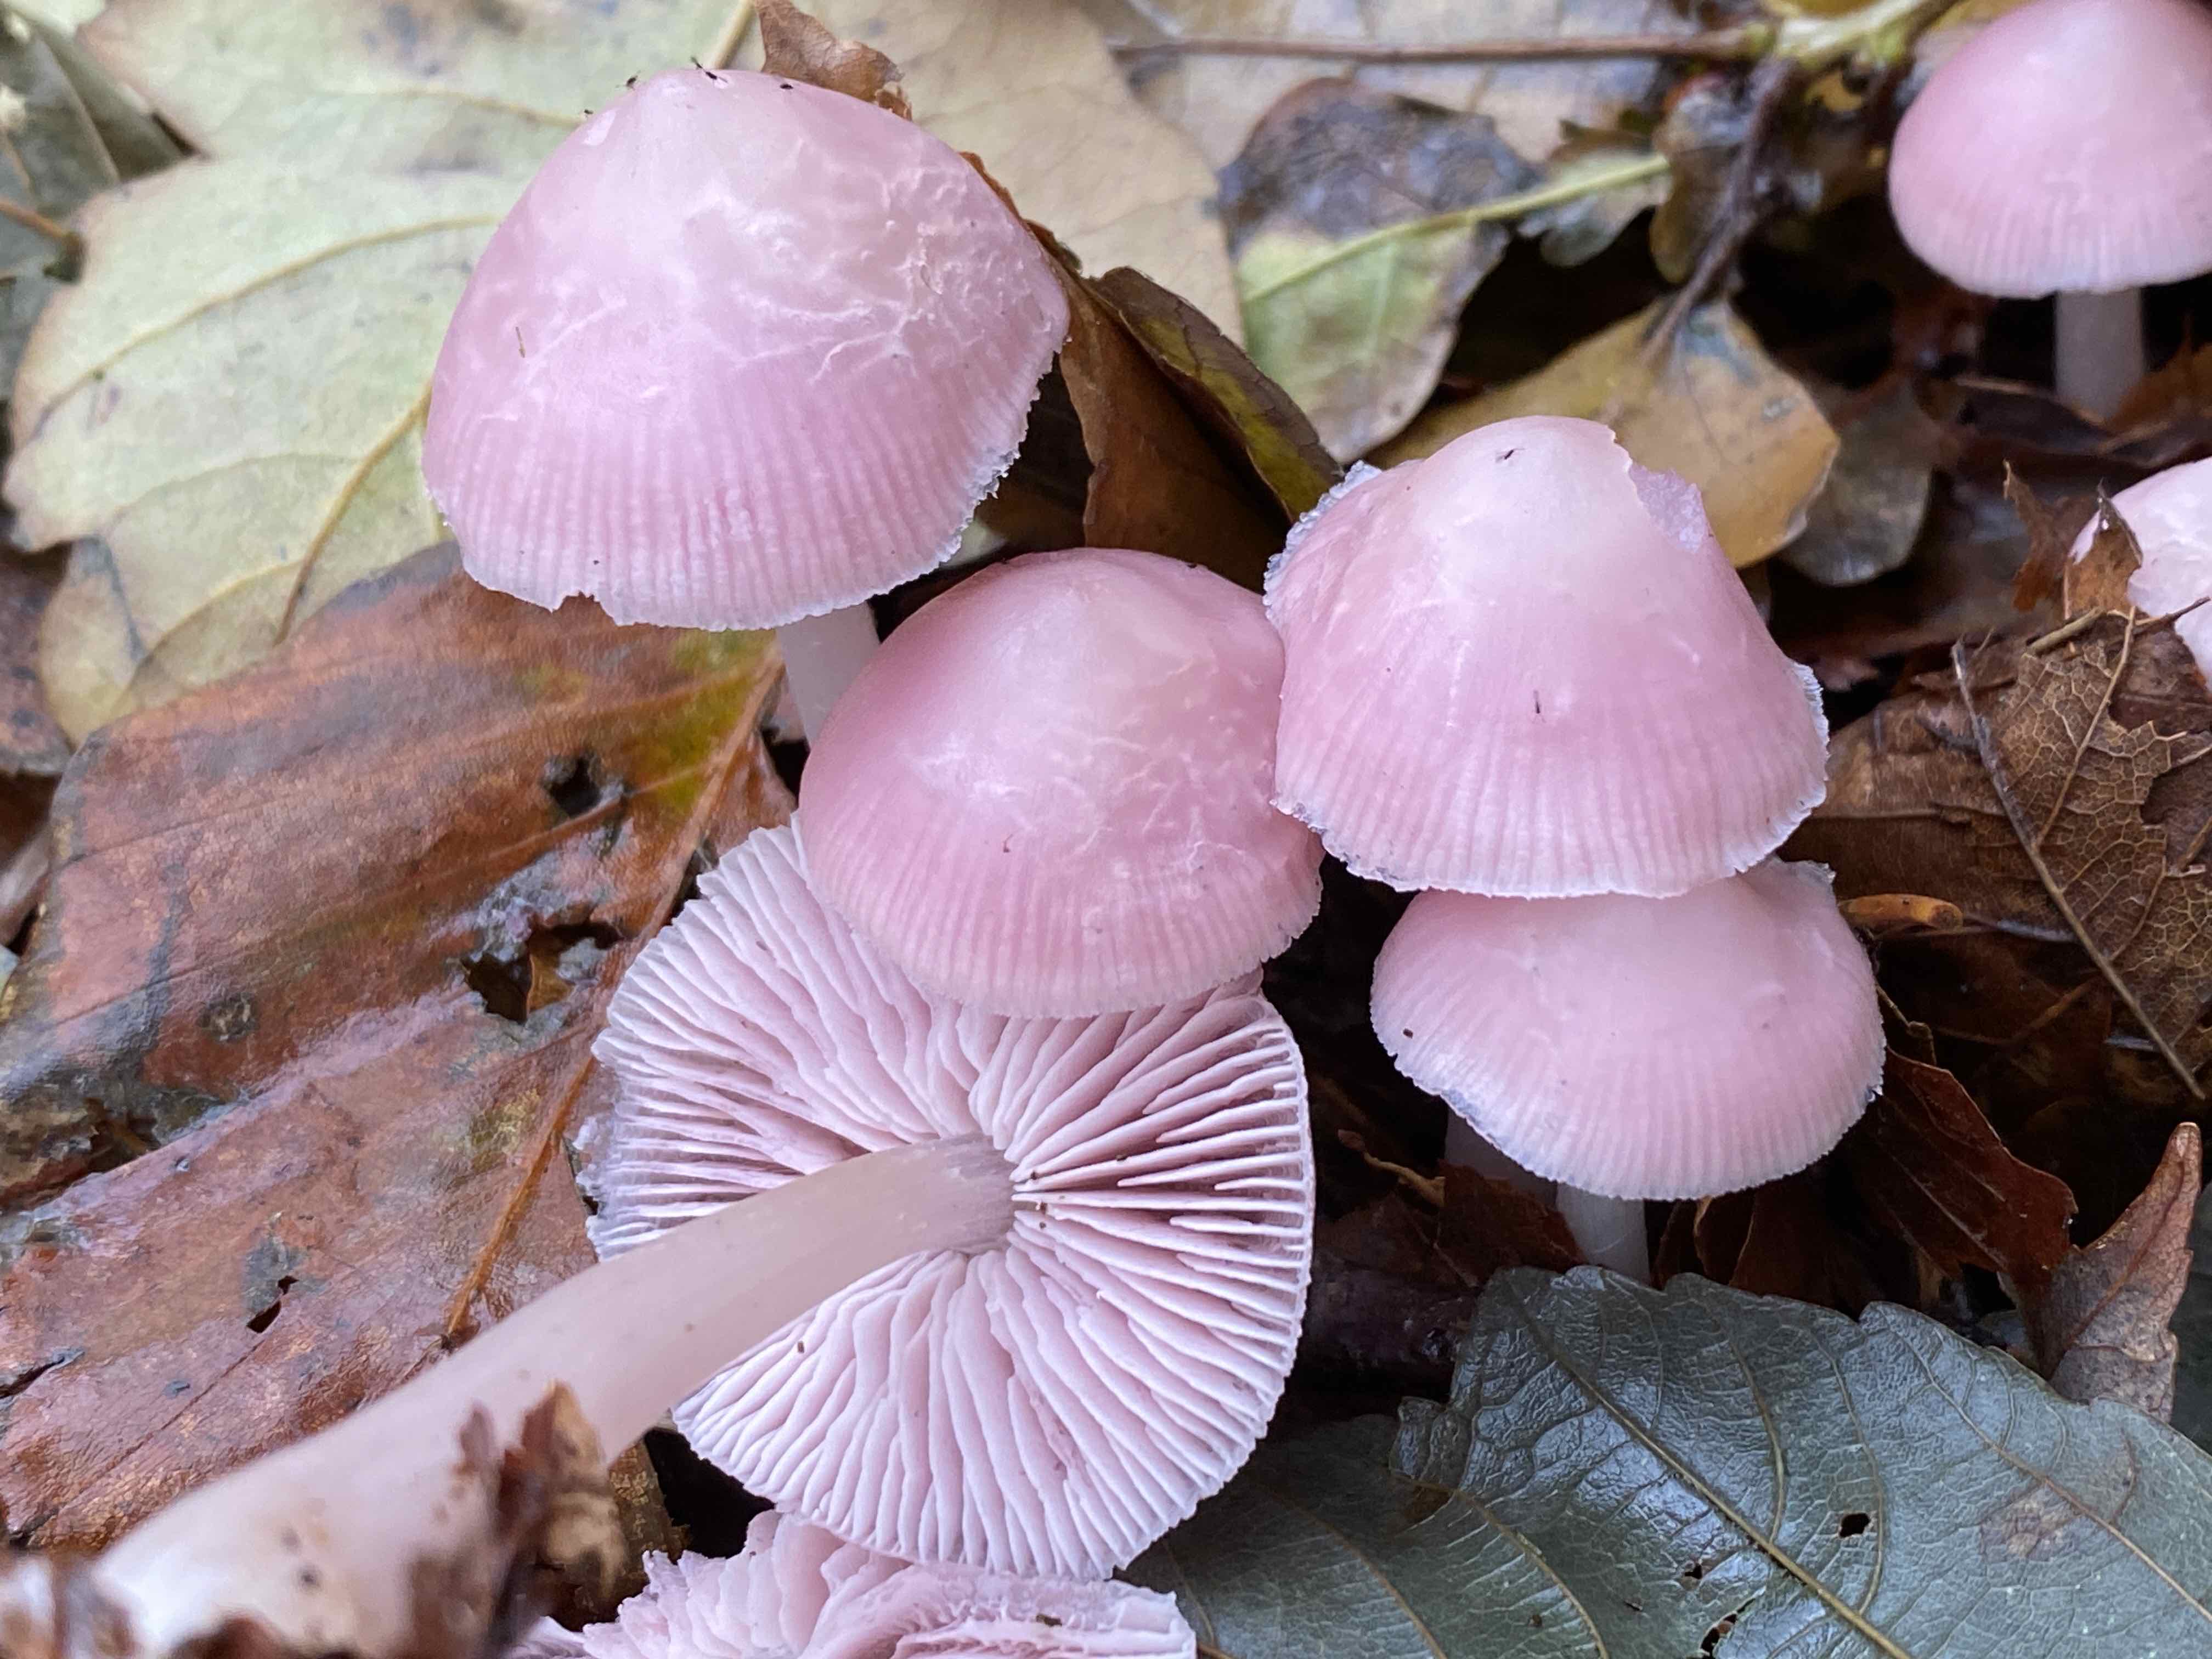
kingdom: Fungi
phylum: Basidiomycota
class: Agaricomycetes
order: Agaricales
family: Mycenaceae
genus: Mycena
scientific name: Mycena rosea
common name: rosa huesvamp
